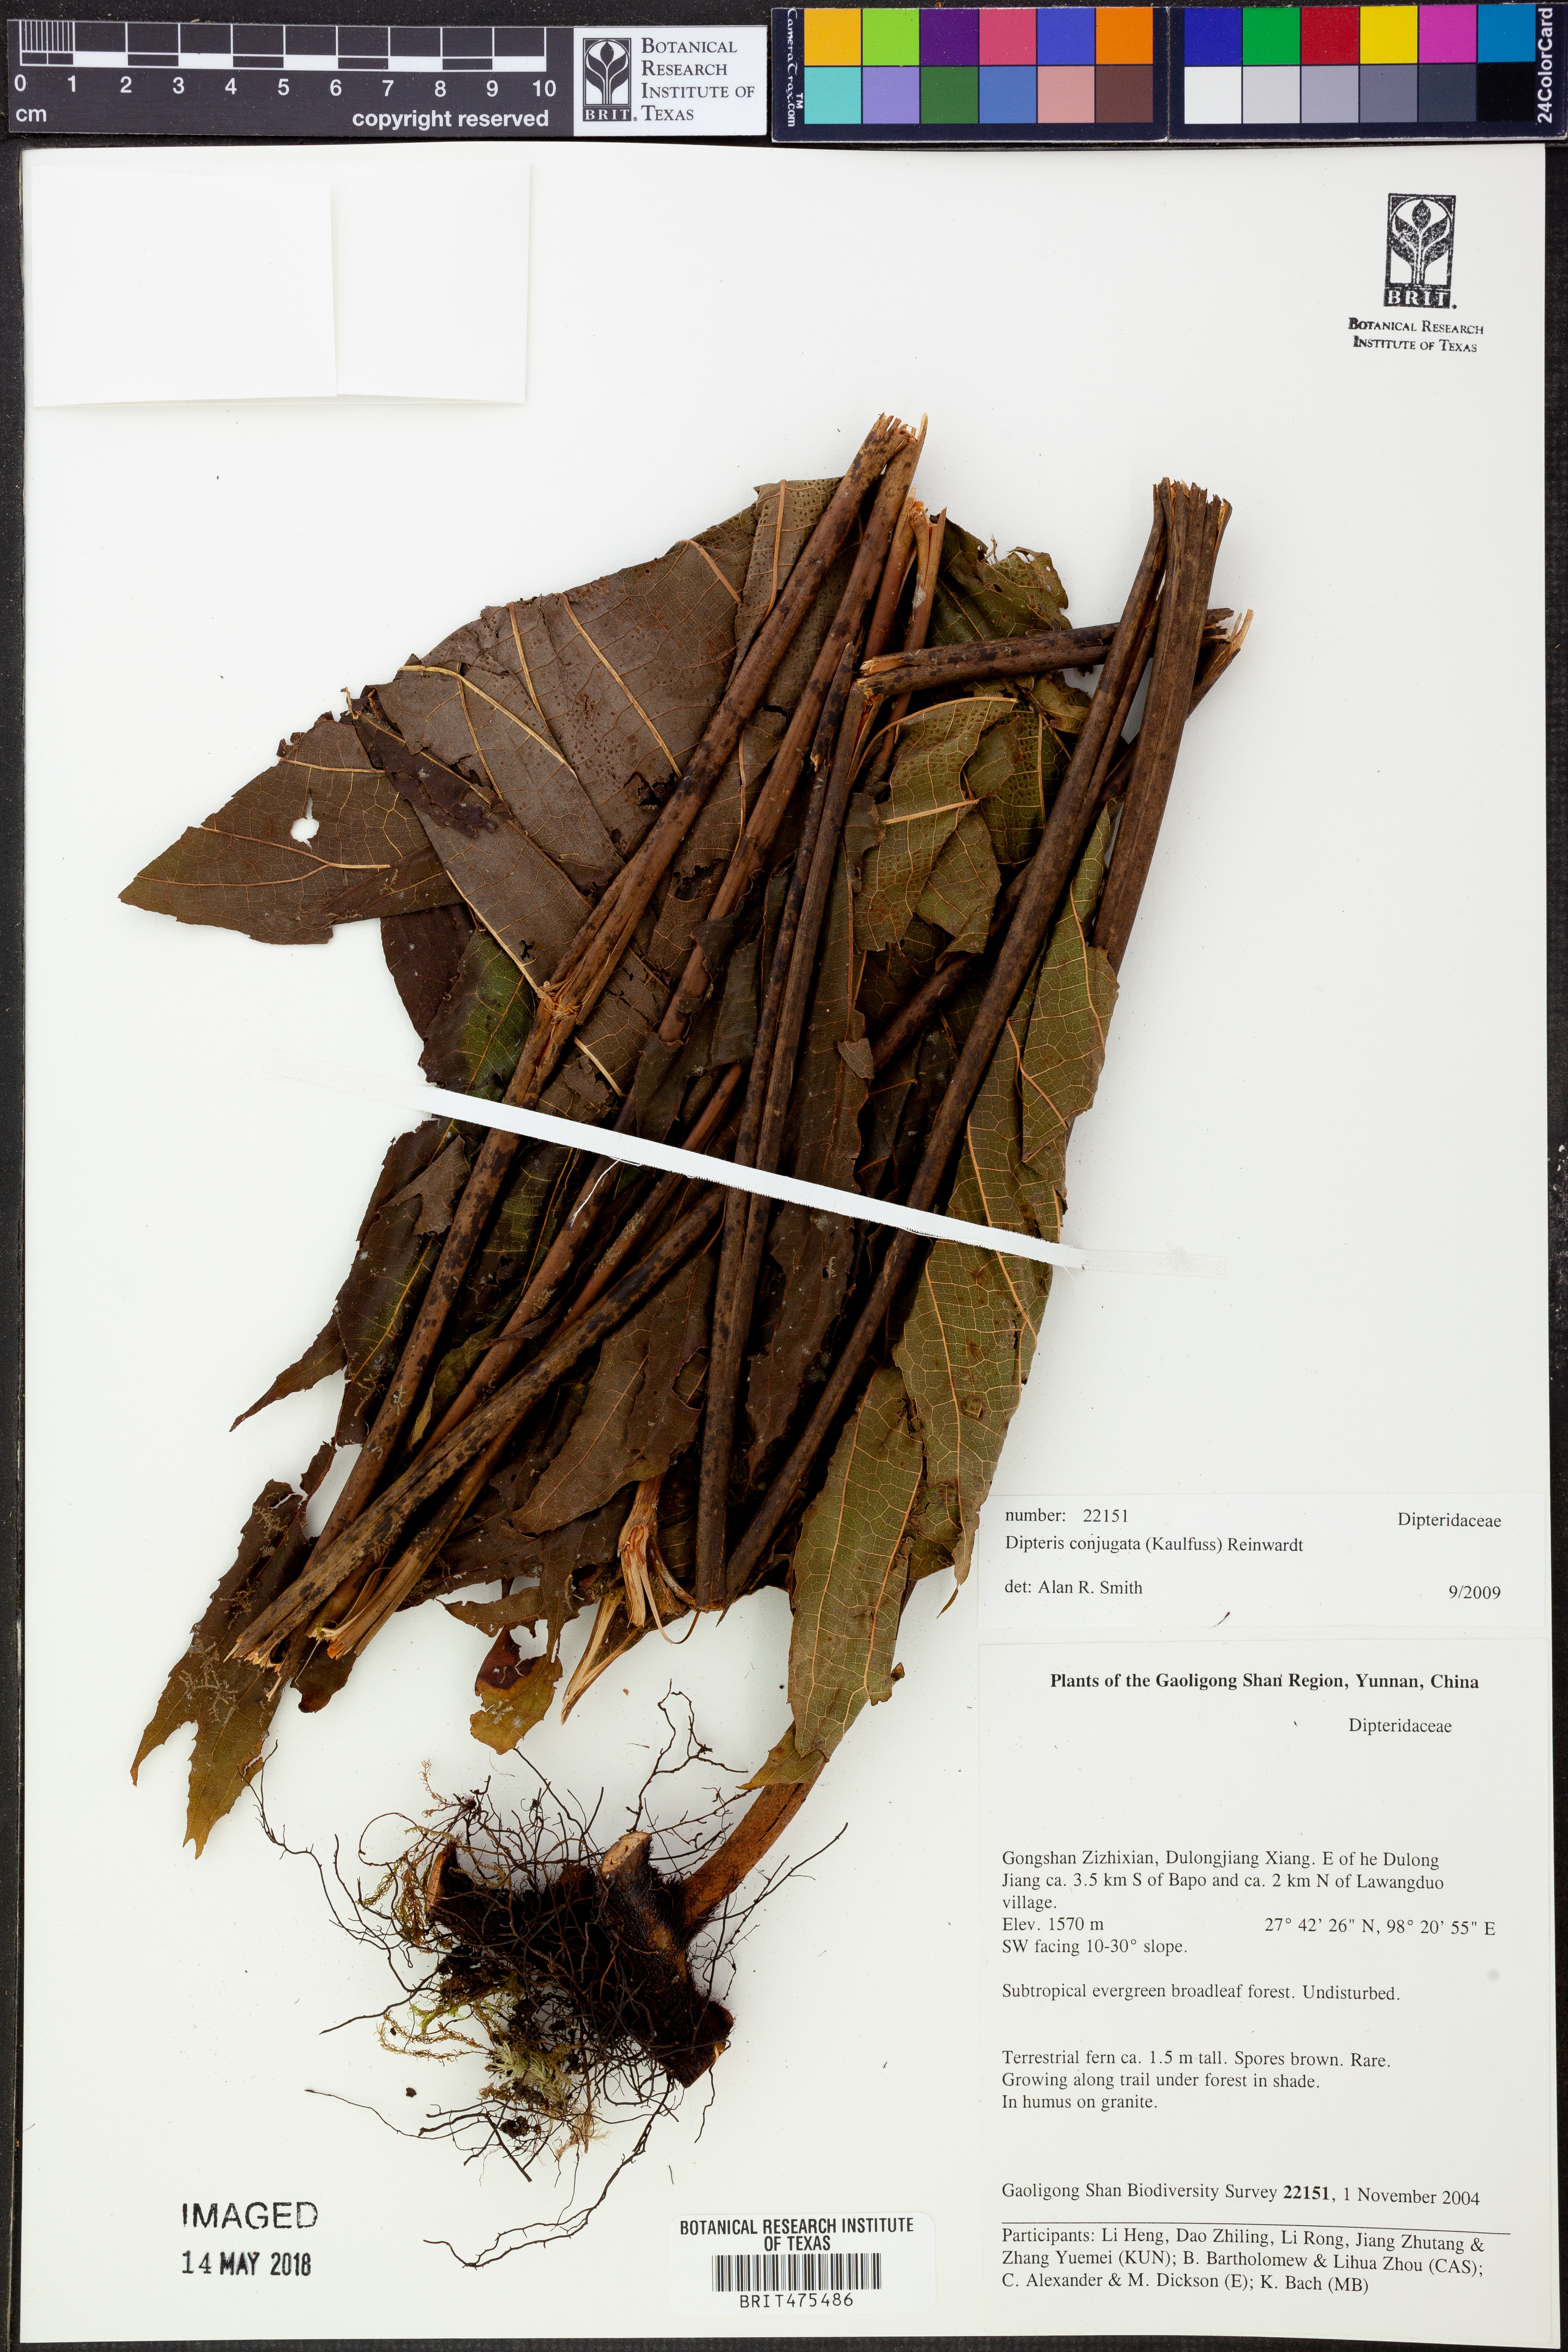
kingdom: Plantae
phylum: Tracheophyta
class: Polypodiopsida
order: Gleicheniales
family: Dipteridaceae
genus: Dipteris
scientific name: Dipteris conjugata
